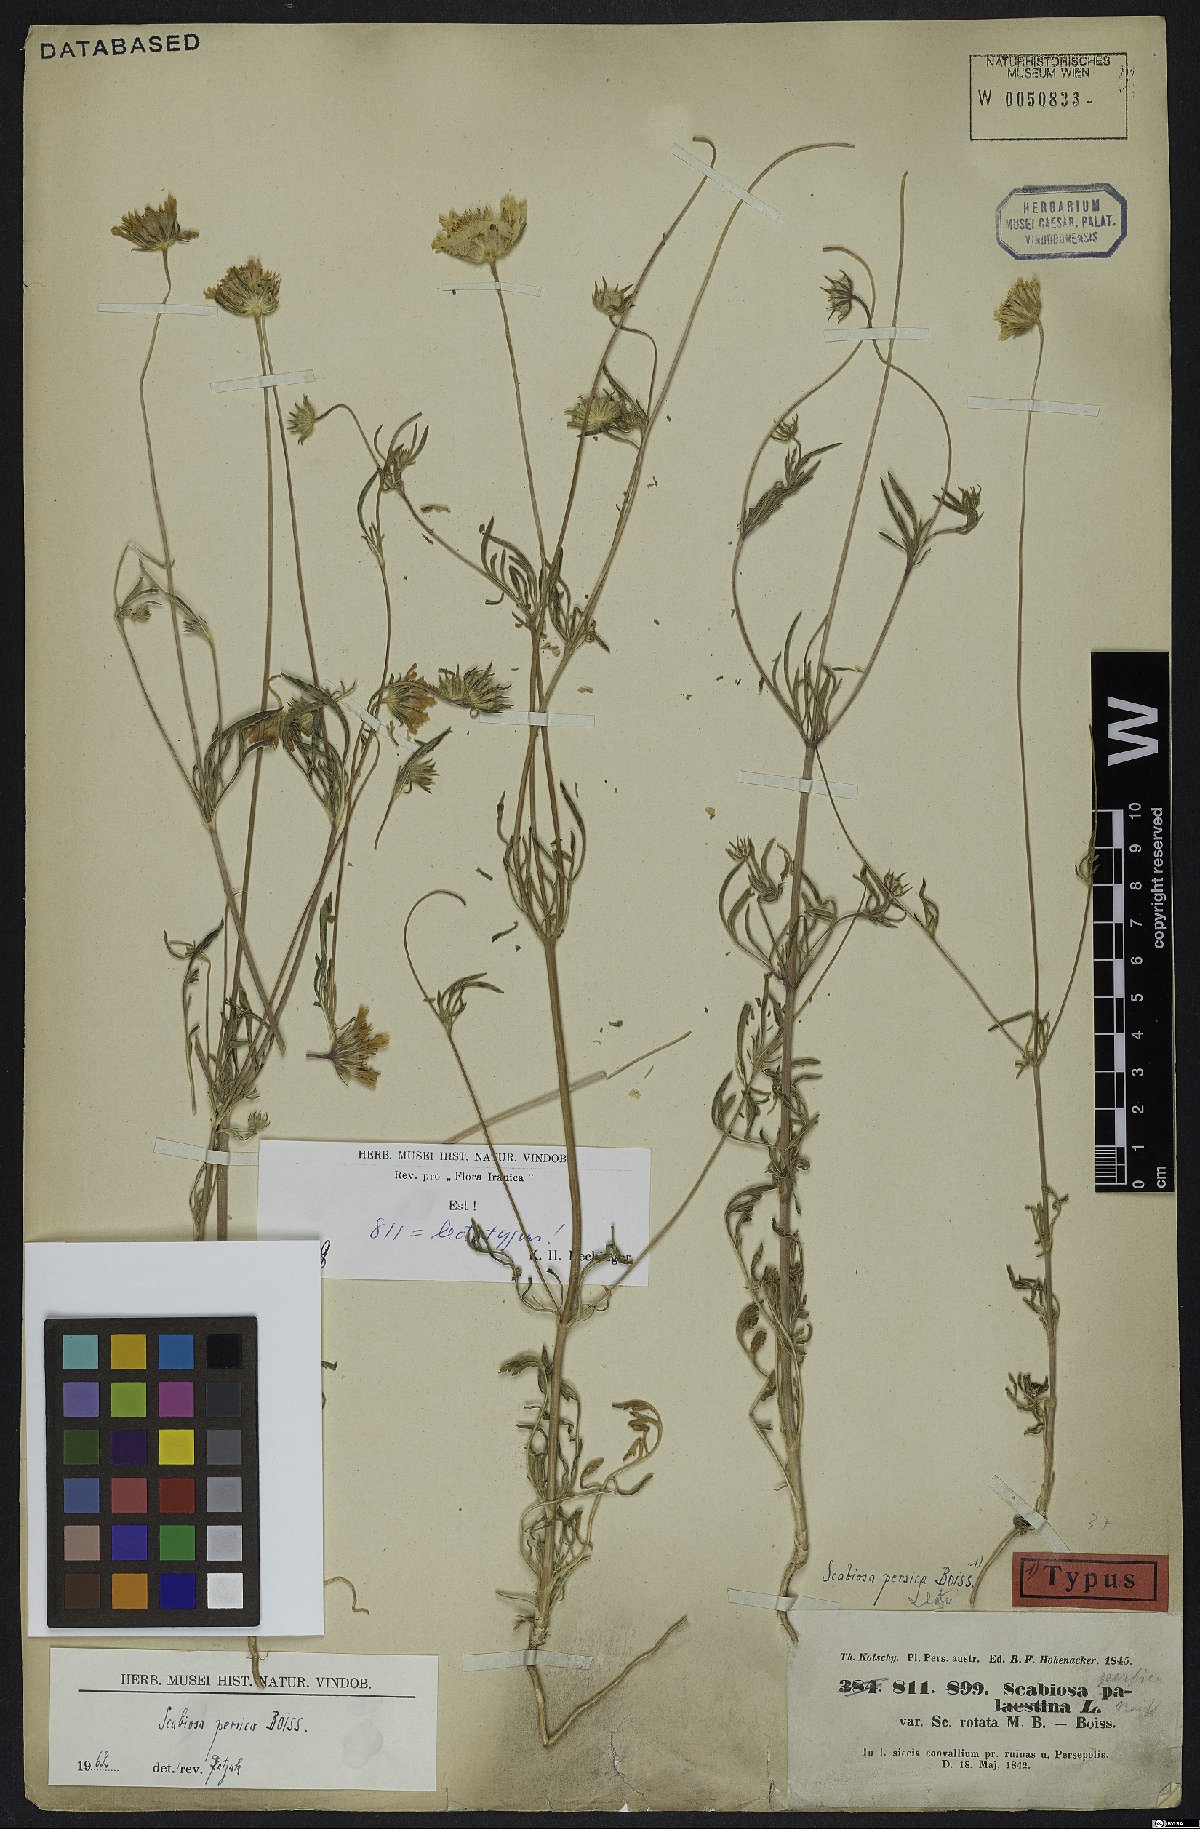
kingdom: Plantae
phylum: Tracheophyta
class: Magnoliopsida
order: Dipsacales
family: Caprifoliaceae
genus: Lomelosia
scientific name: Lomelosia persica
